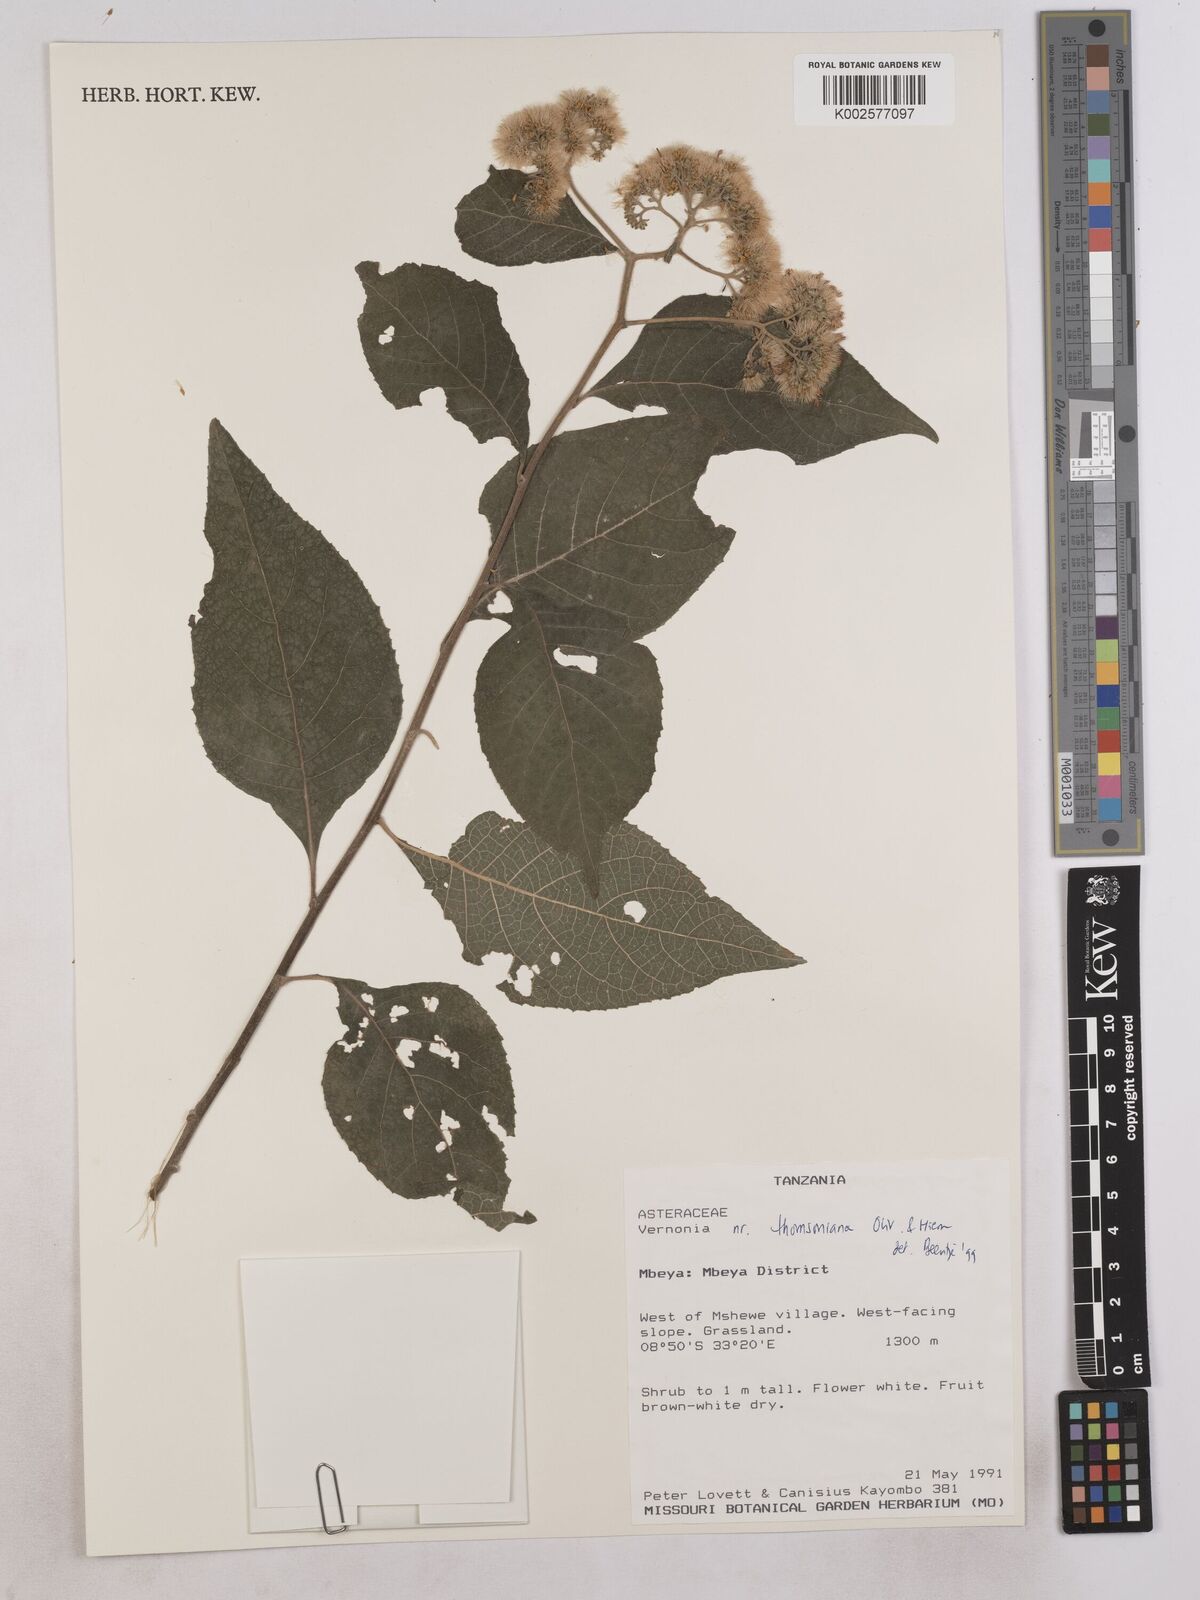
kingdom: Plantae
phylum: Tracheophyta
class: Magnoliopsida
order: Asterales
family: Asteraceae
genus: Gymnanthemum
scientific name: Gymnanthemum thomsonianum
